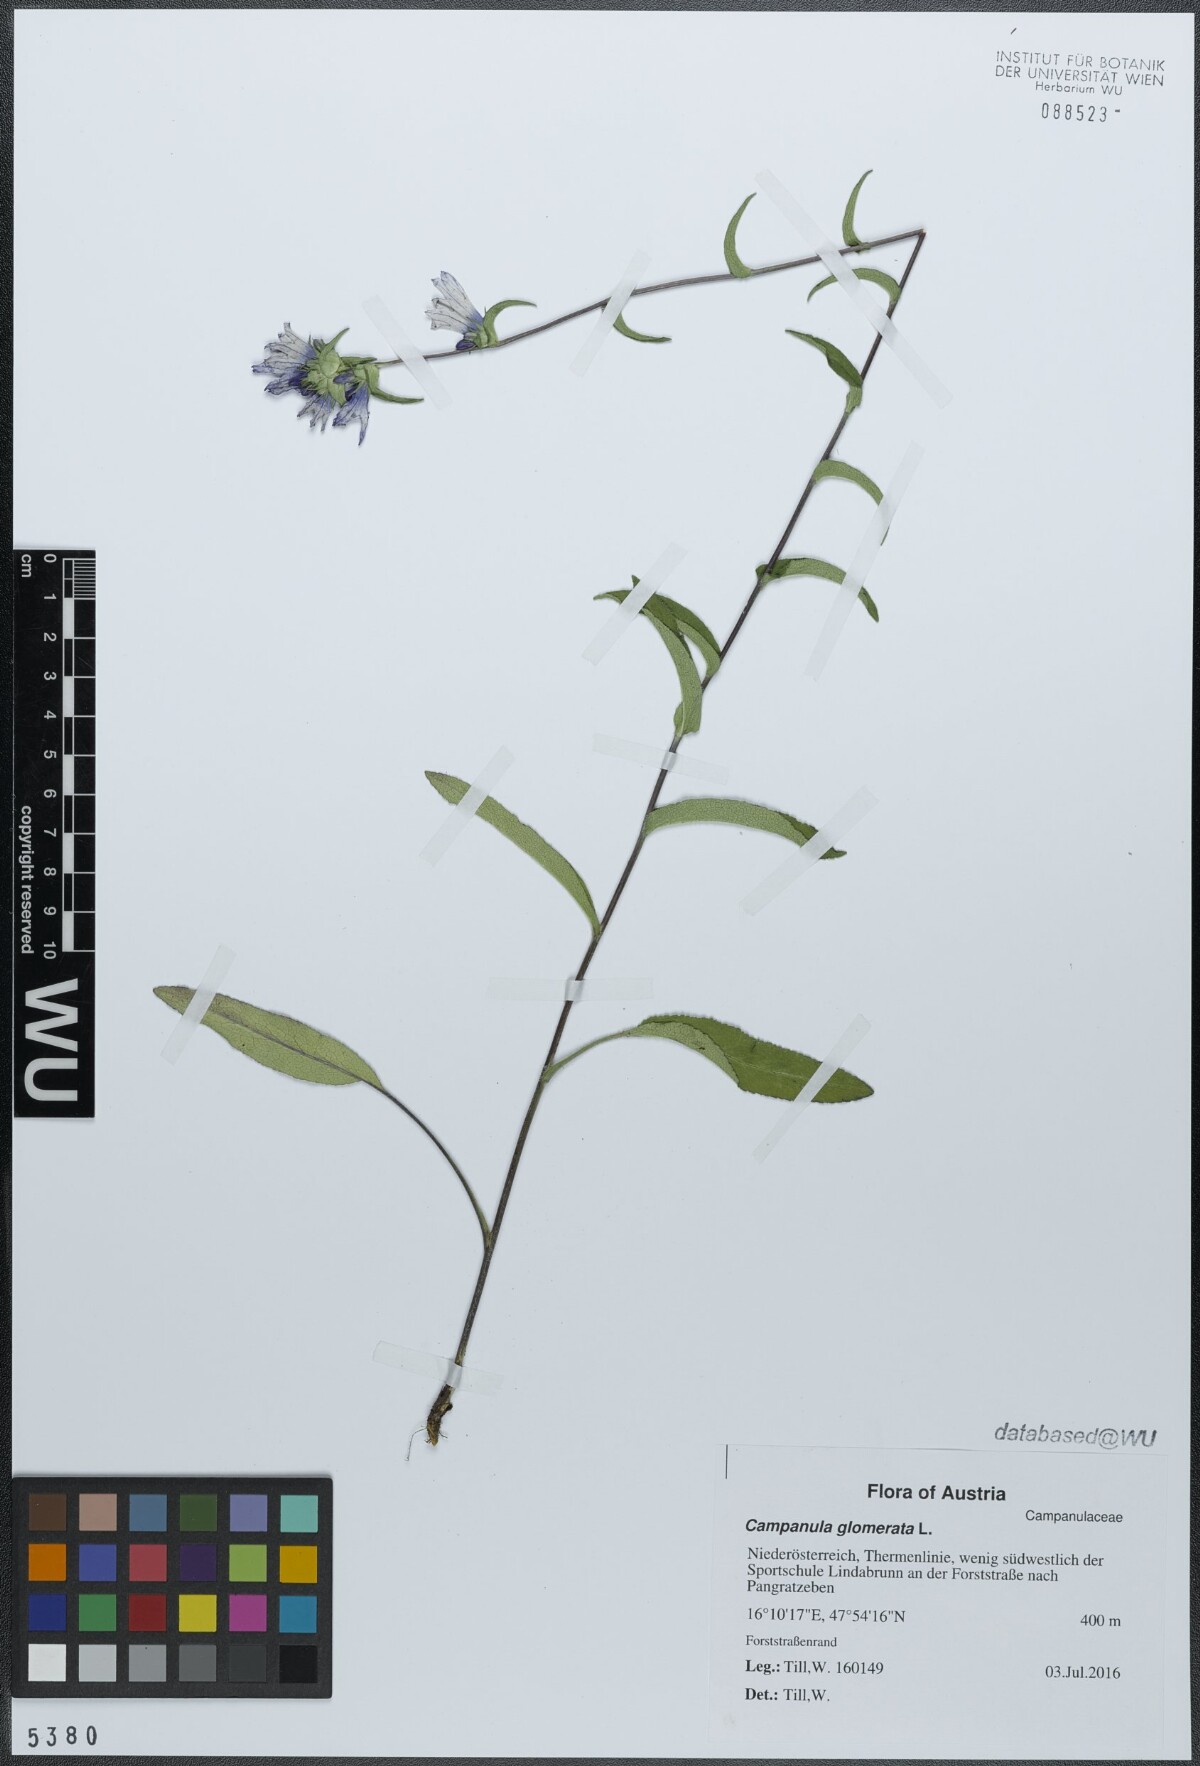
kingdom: Plantae
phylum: Tracheophyta
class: Magnoliopsida
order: Asterales
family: Campanulaceae
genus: Campanula
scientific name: Campanula glomerata
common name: Clustered bellflower
